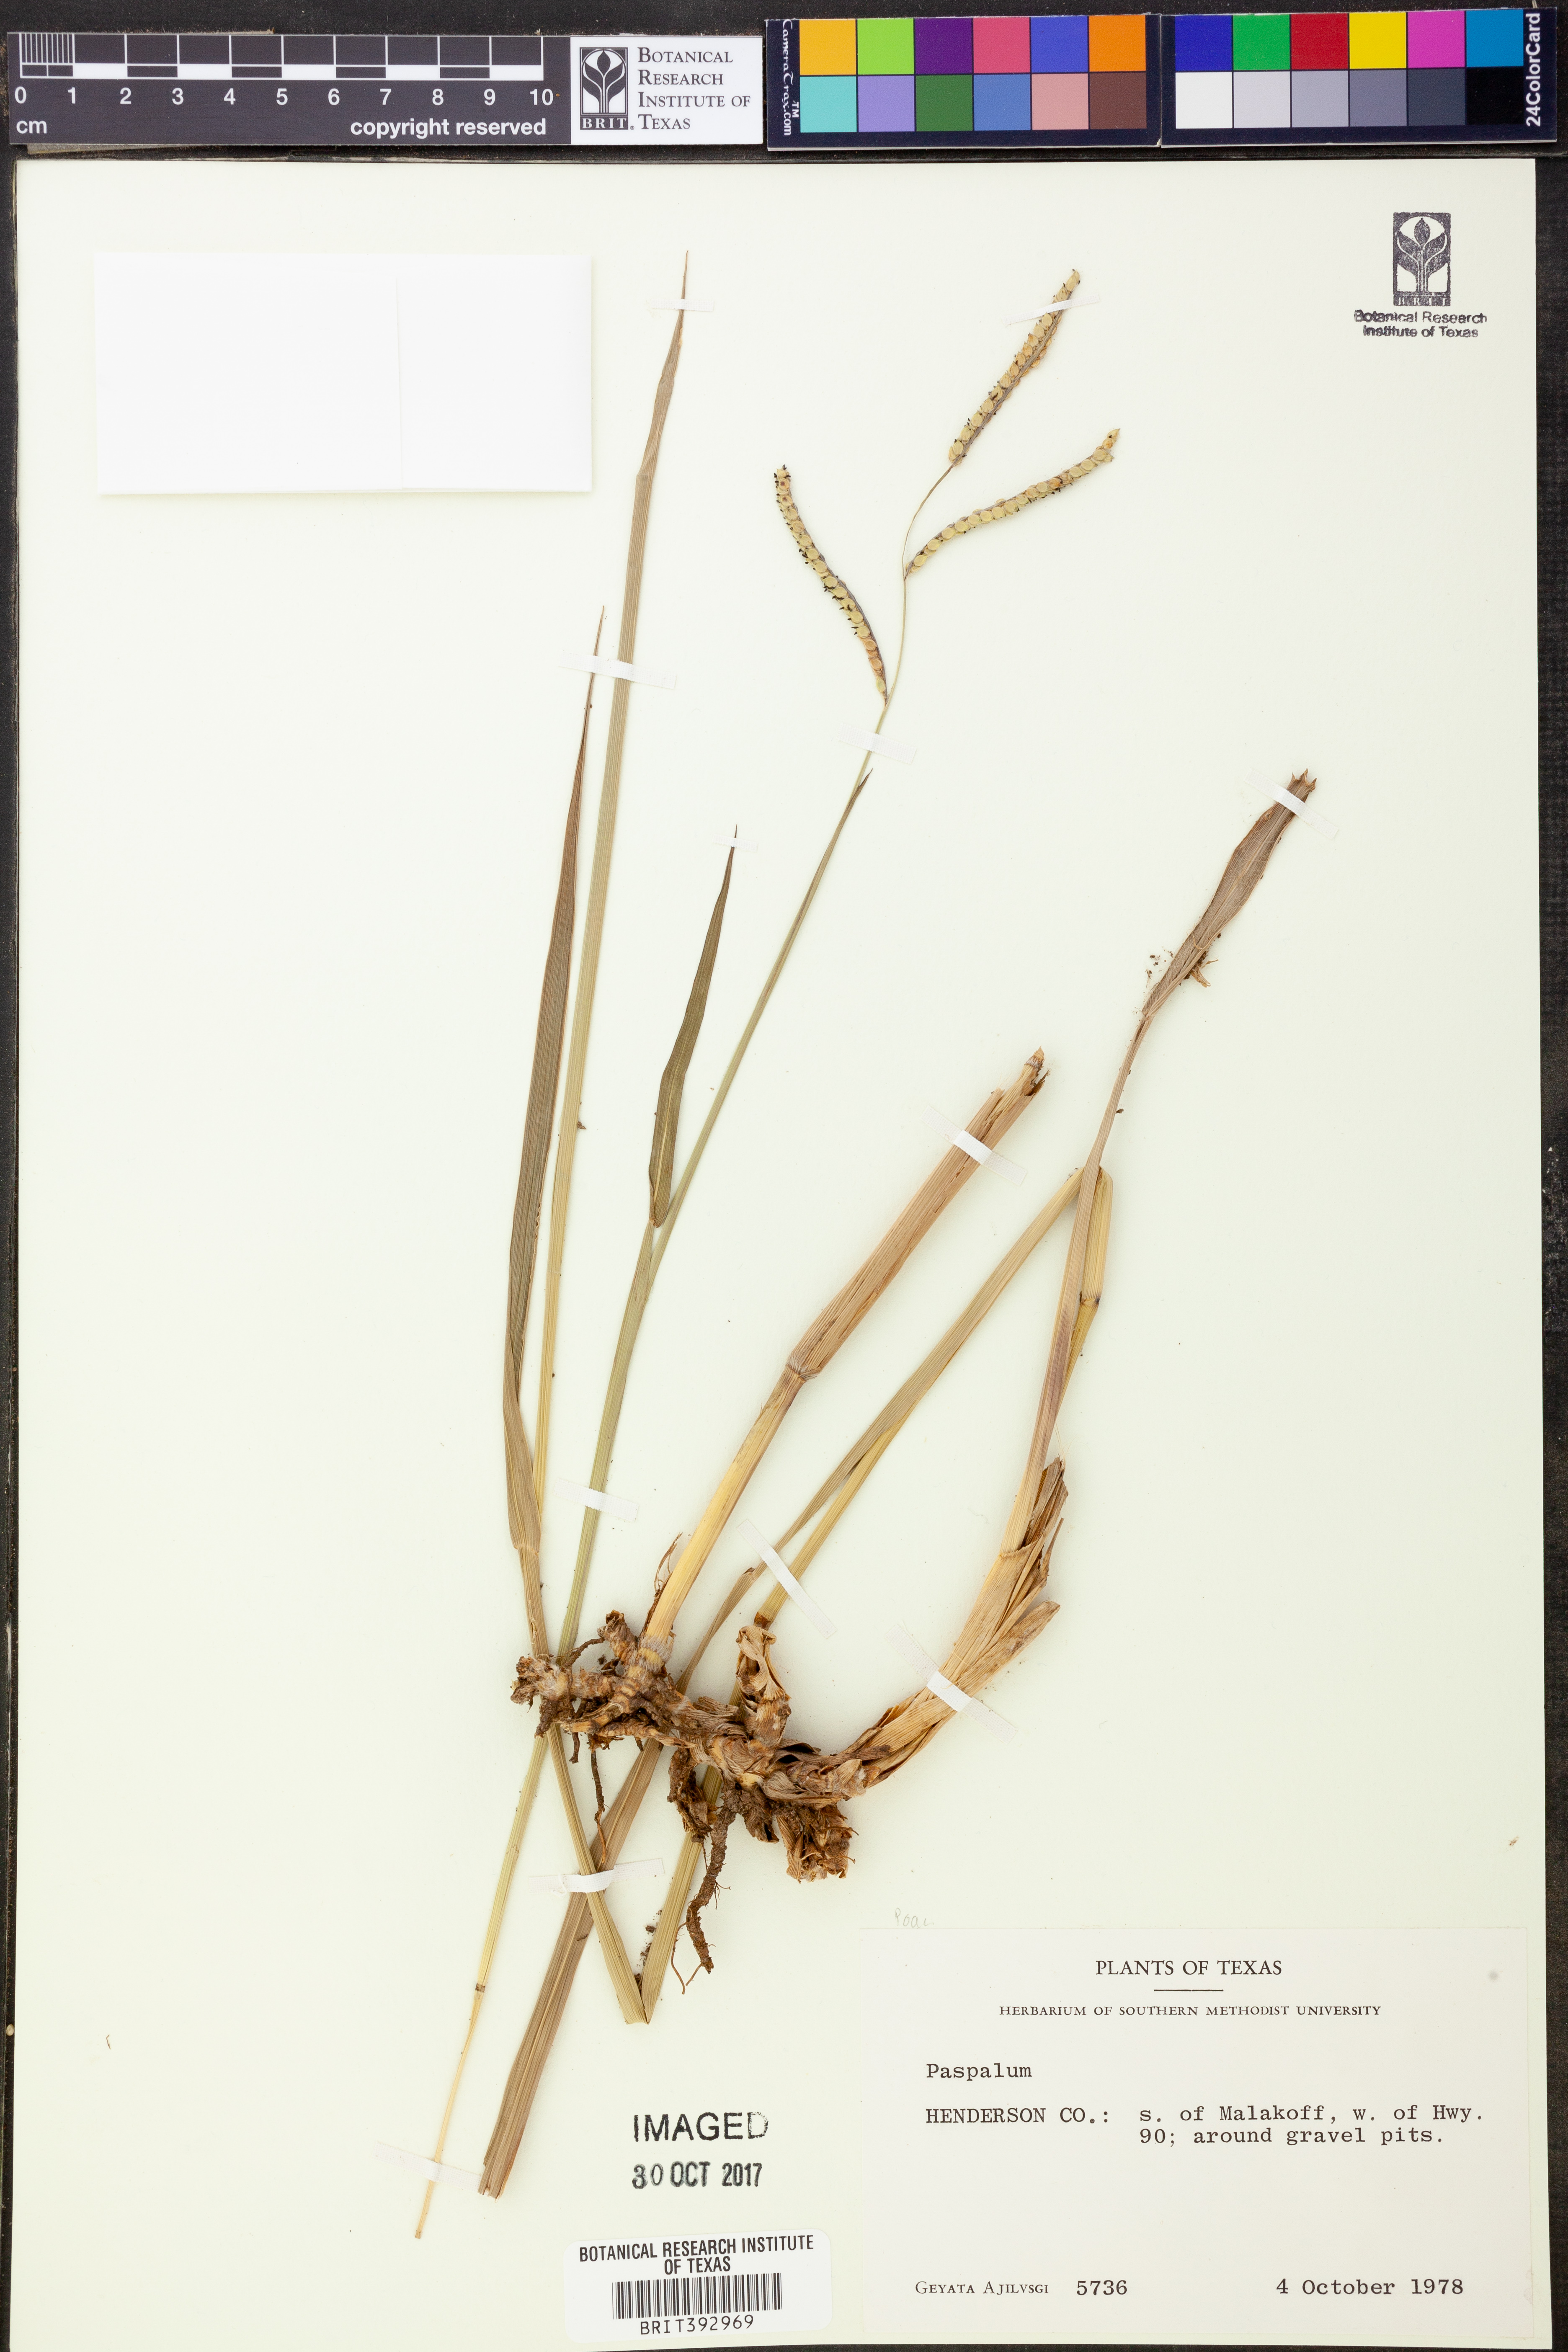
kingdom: Plantae
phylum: Tracheophyta
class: Liliopsida
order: Poales
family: Poaceae
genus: Paspalum
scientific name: Paspalum
